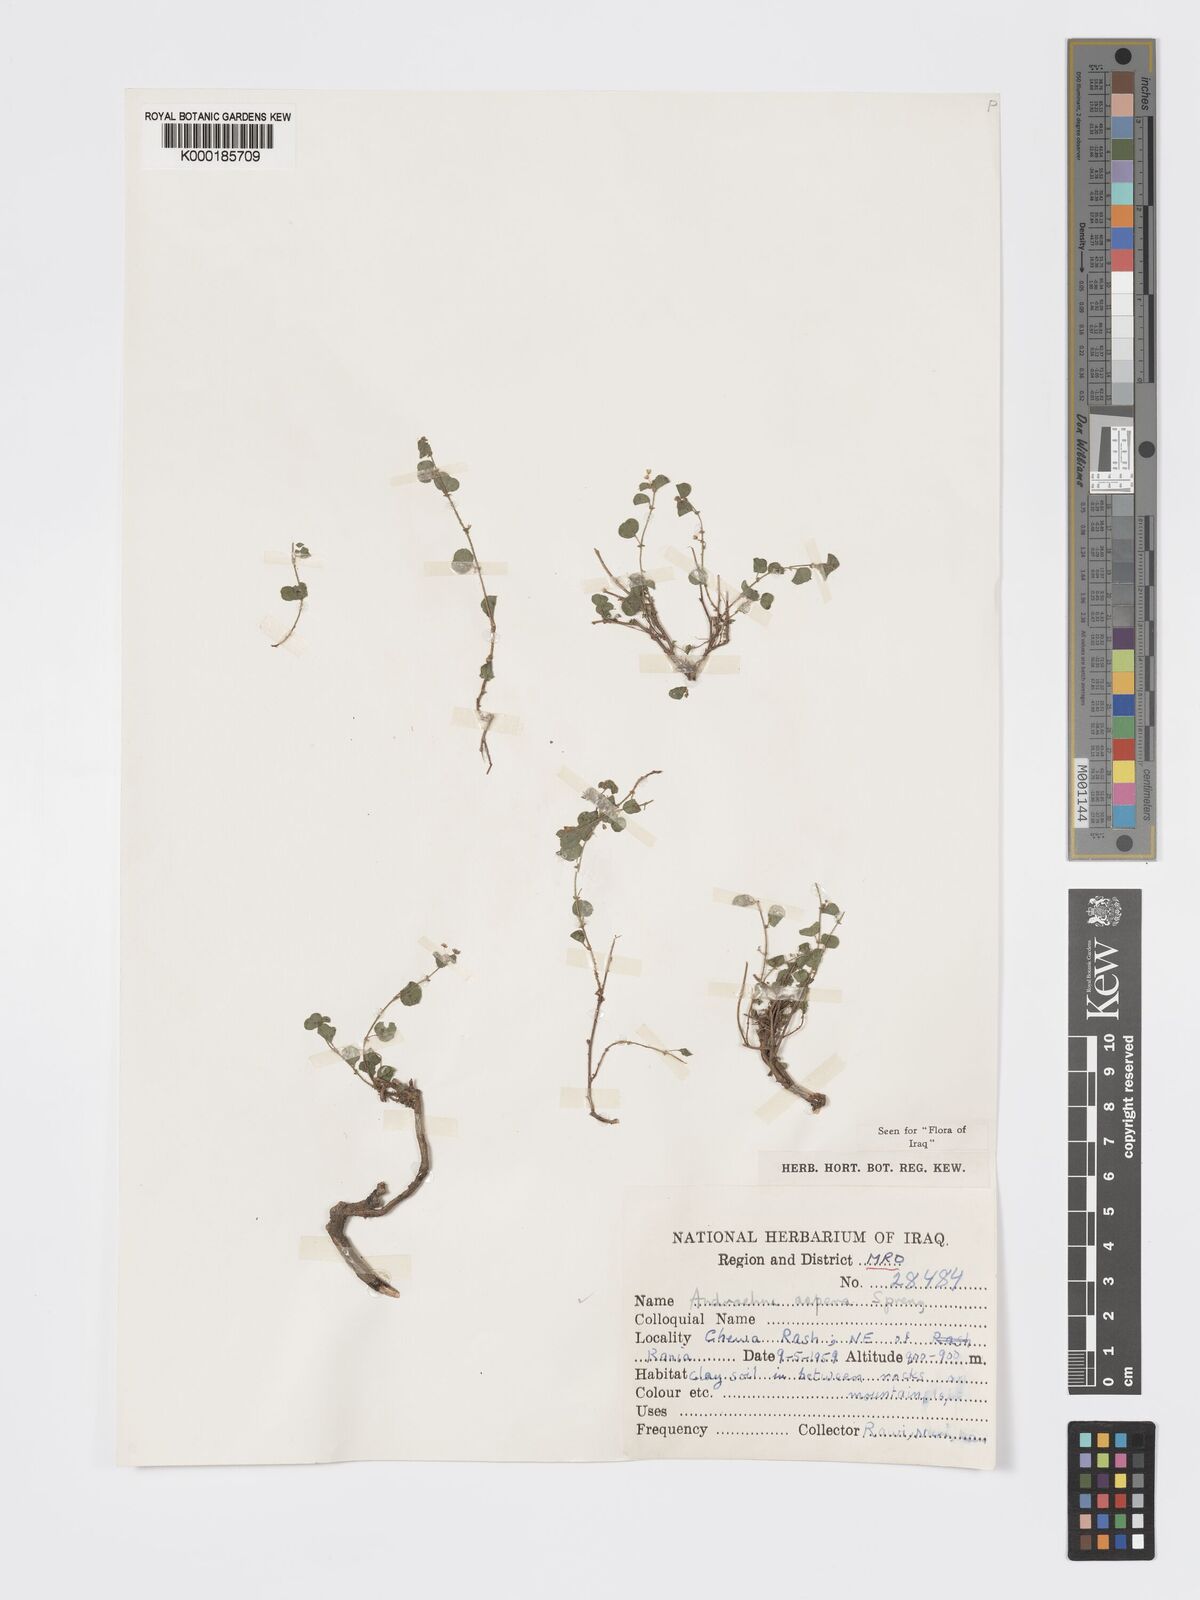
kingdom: Plantae
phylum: Tracheophyta
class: Magnoliopsida
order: Malpighiales
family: Phyllanthaceae
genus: Andrachne
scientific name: Andrachne aspera
